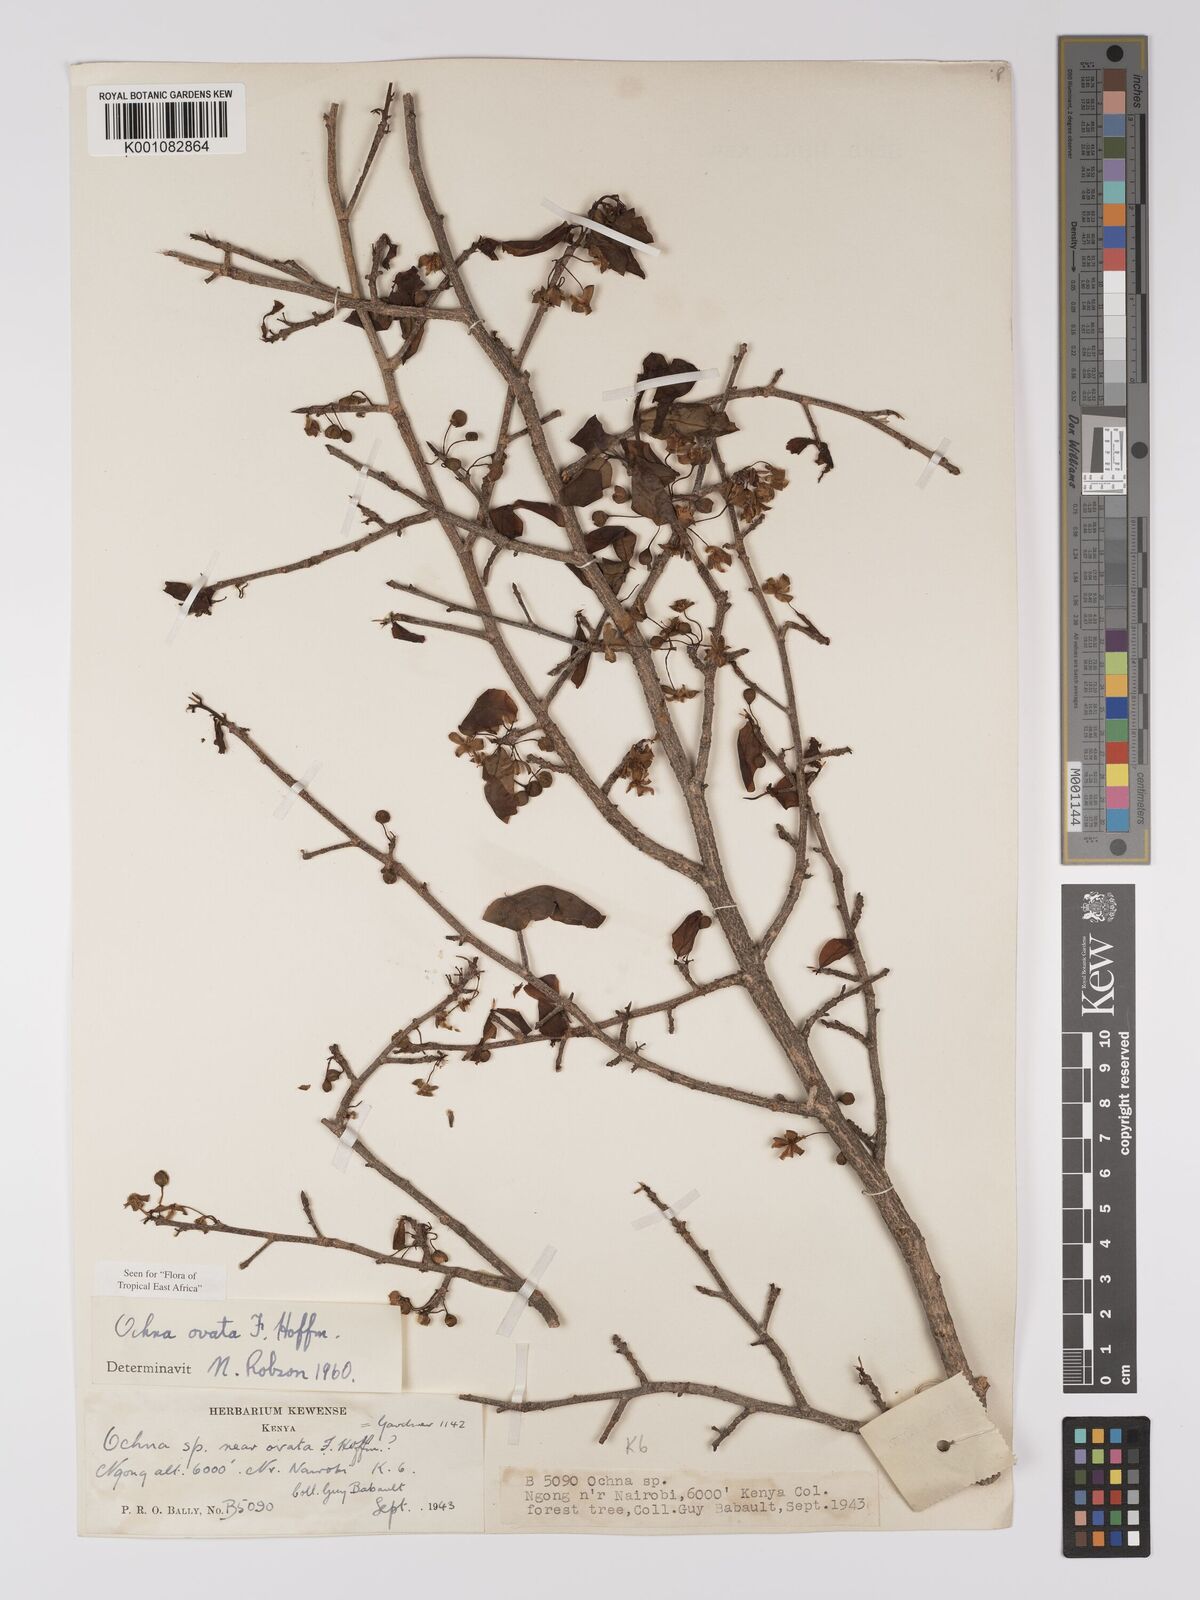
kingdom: Plantae
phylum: Tracheophyta
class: Magnoliopsida
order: Malpighiales
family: Ochnaceae
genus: Ochna
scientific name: Ochna ovata
